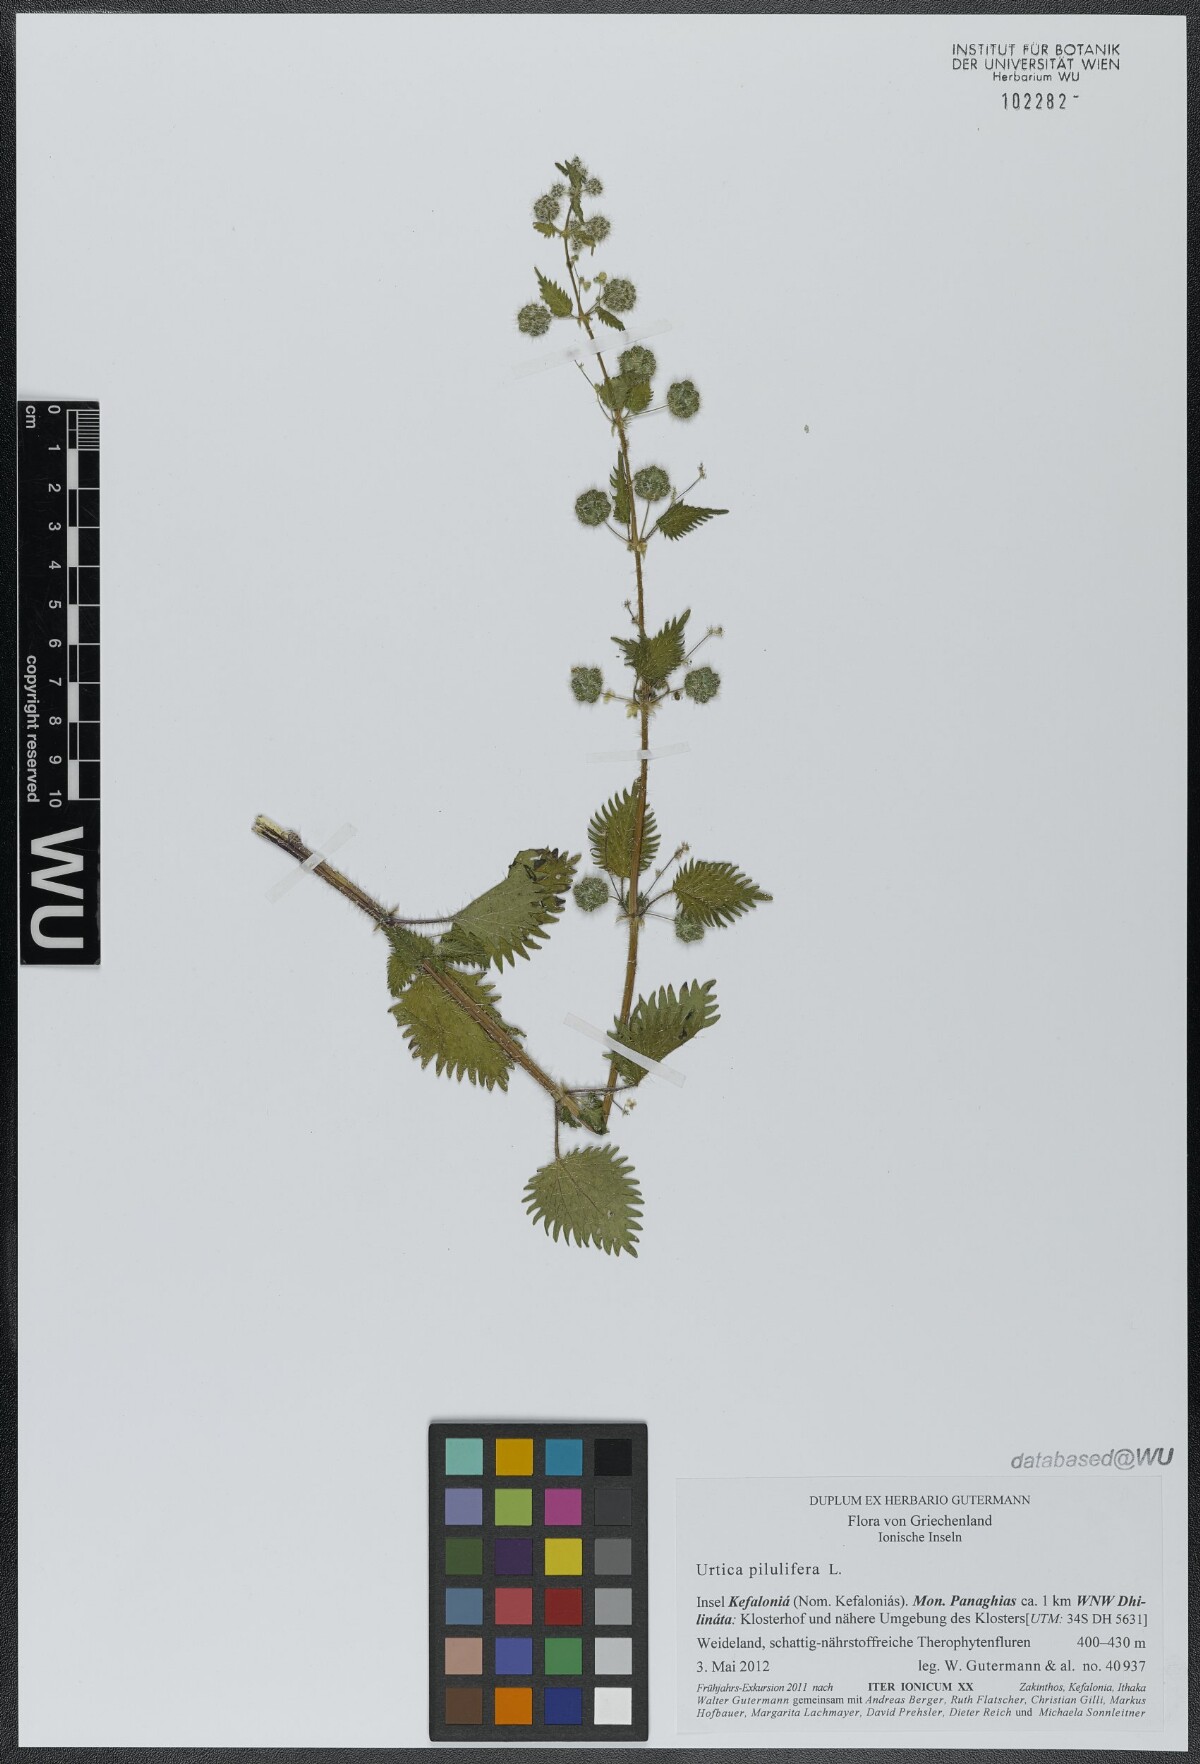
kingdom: Plantae
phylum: Tracheophyta
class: Magnoliopsida
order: Rosales
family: Urticaceae
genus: Urtica
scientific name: Urtica pilulifera
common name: Roman nettle
